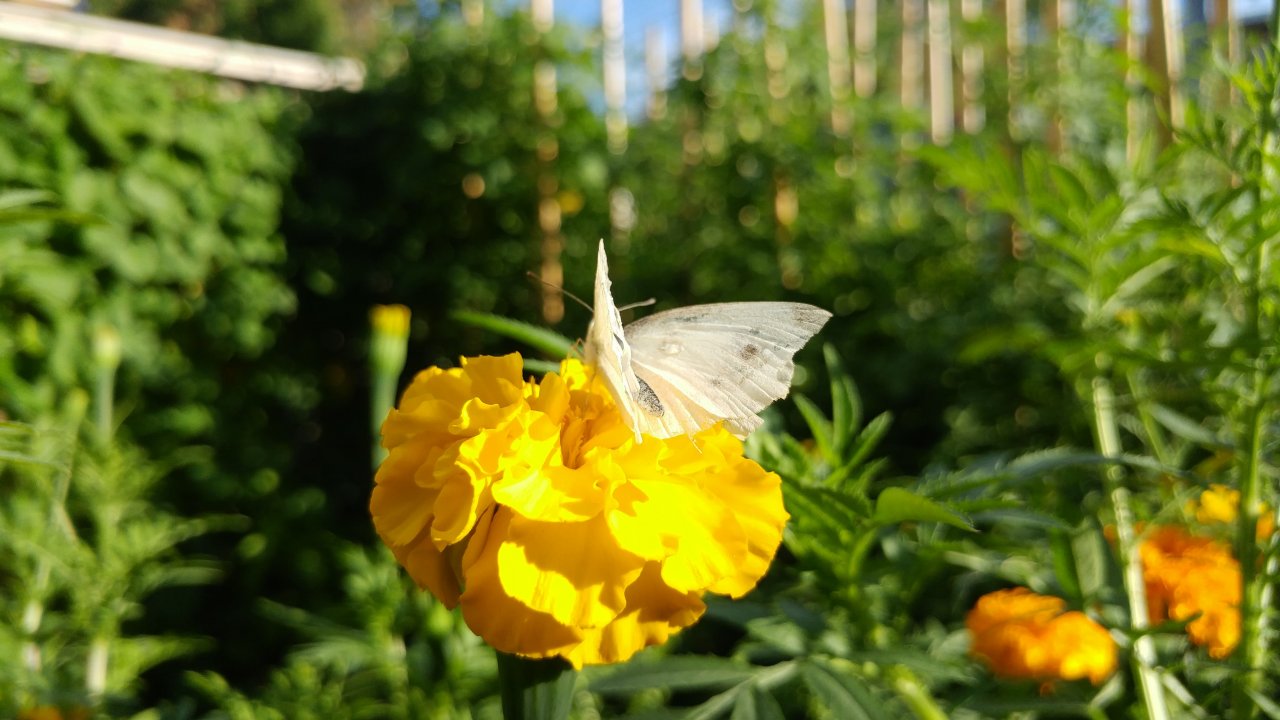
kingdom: Animalia
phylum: Arthropoda
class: Insecta
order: Lepidoptera
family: Pieridae
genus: Pieris
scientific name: Pieris rapae
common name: Cabbage White
